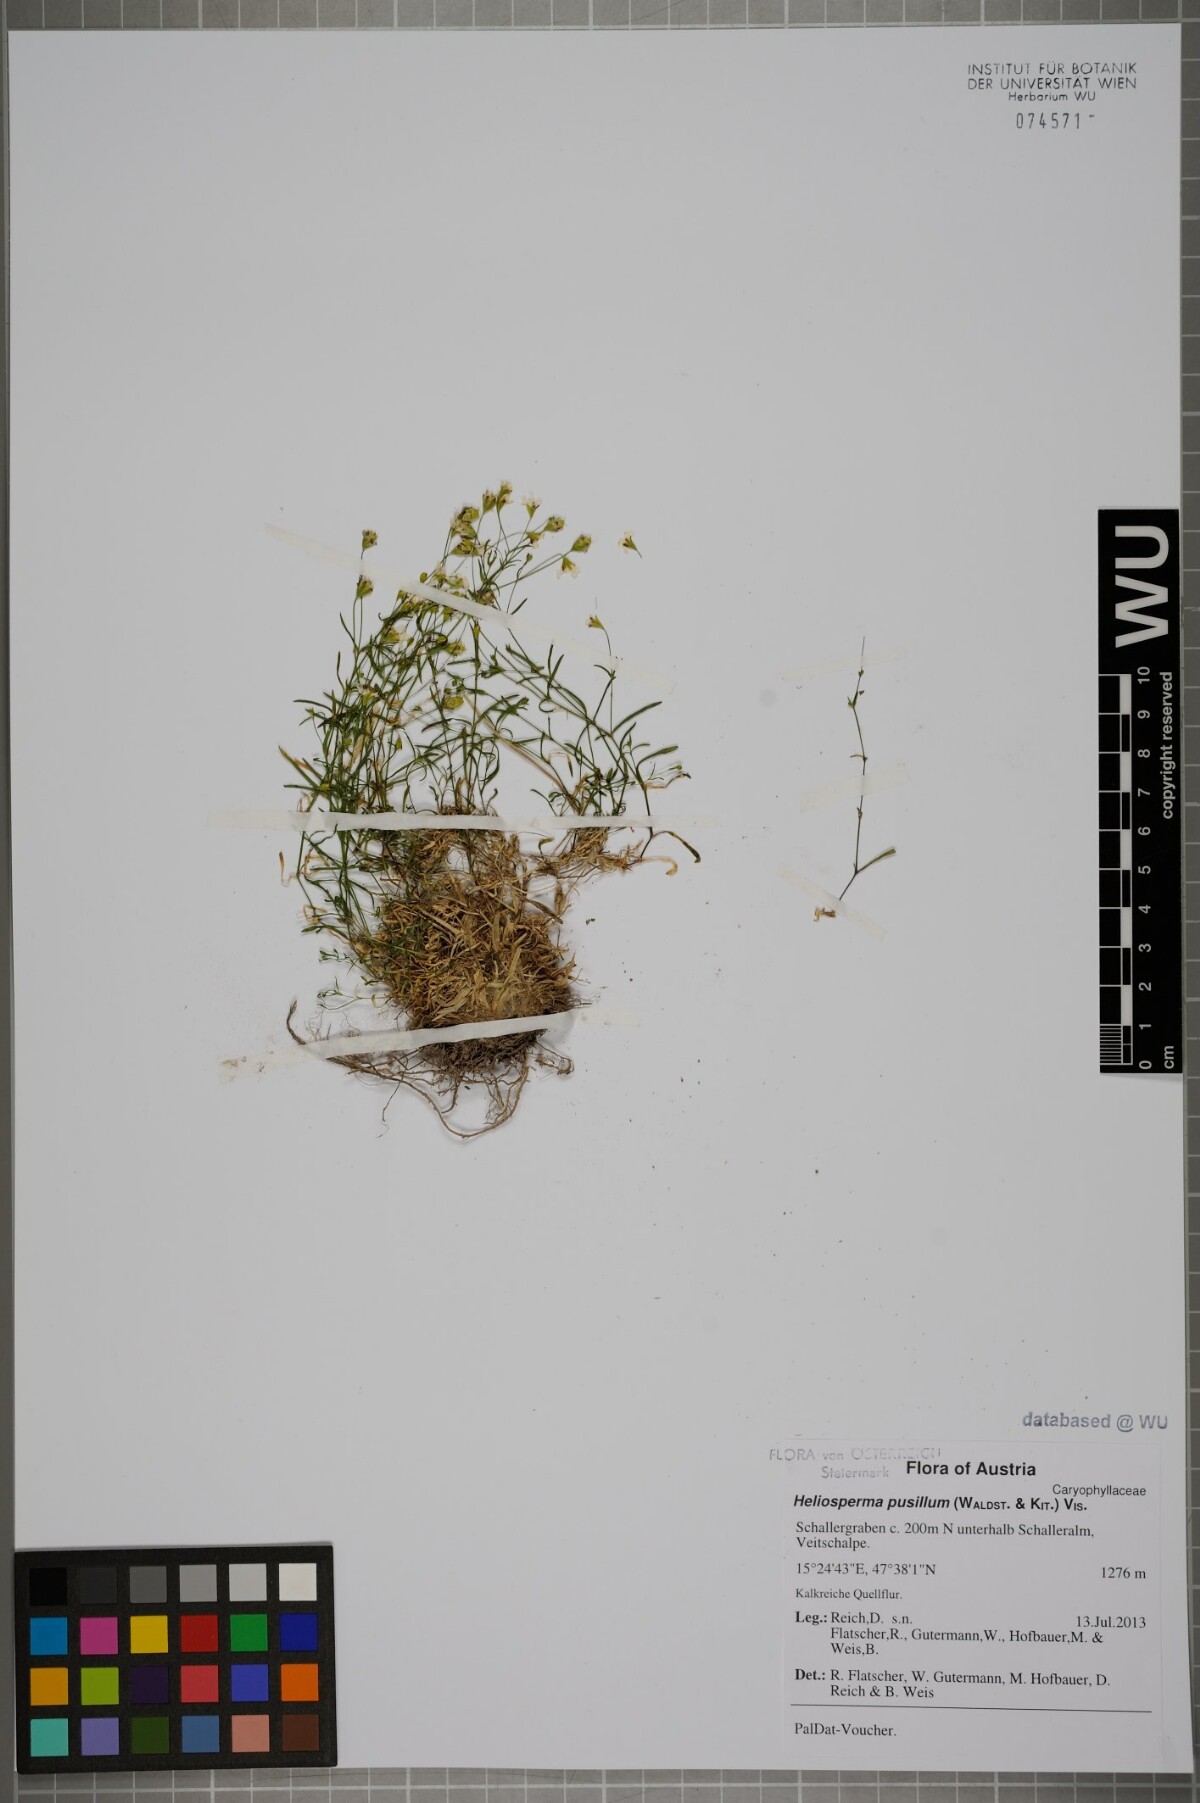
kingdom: Plantae
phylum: Tracheophyta
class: Magnoliopsida
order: Caryophyllales
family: Caryophyllaceae
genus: Heliosperma
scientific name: Heliosperma pusillum
